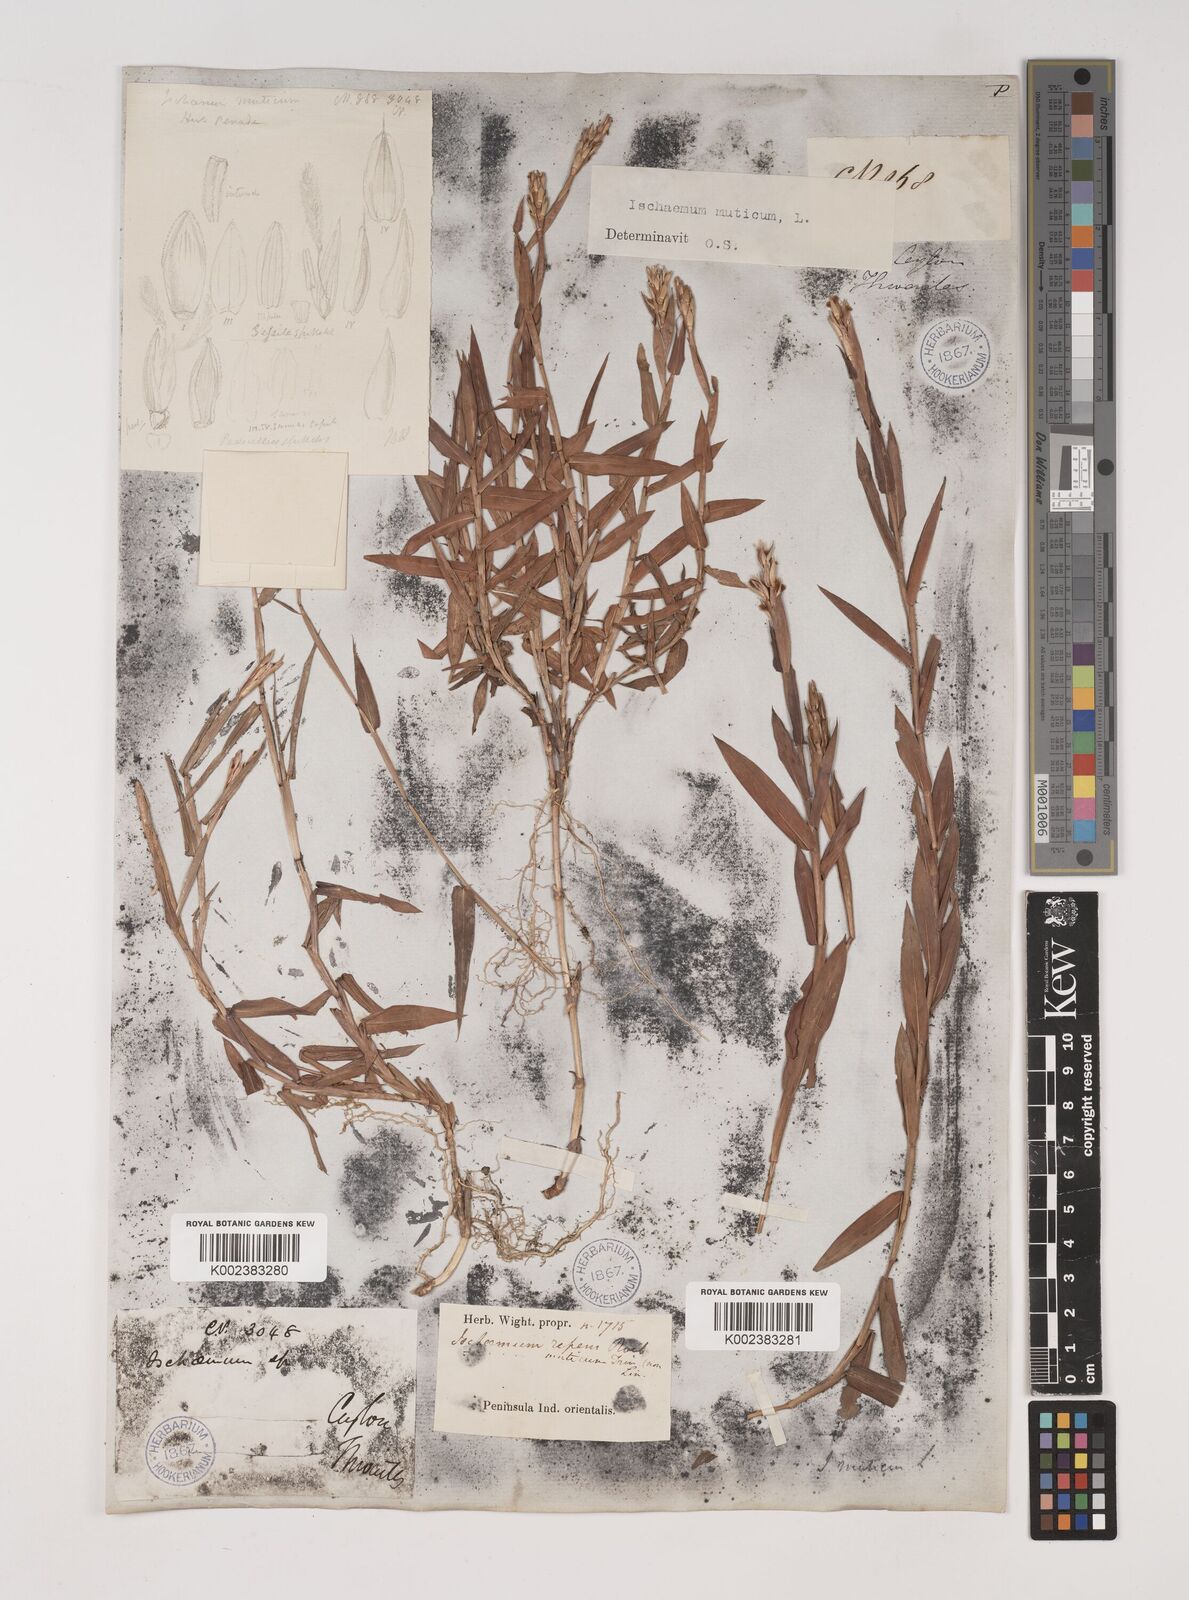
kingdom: Plantae
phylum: Tracheophyta
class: Liliopsida
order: Poales
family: Poaceae
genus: Ischaemum
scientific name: Ischaemum muticum
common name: Drought grass
